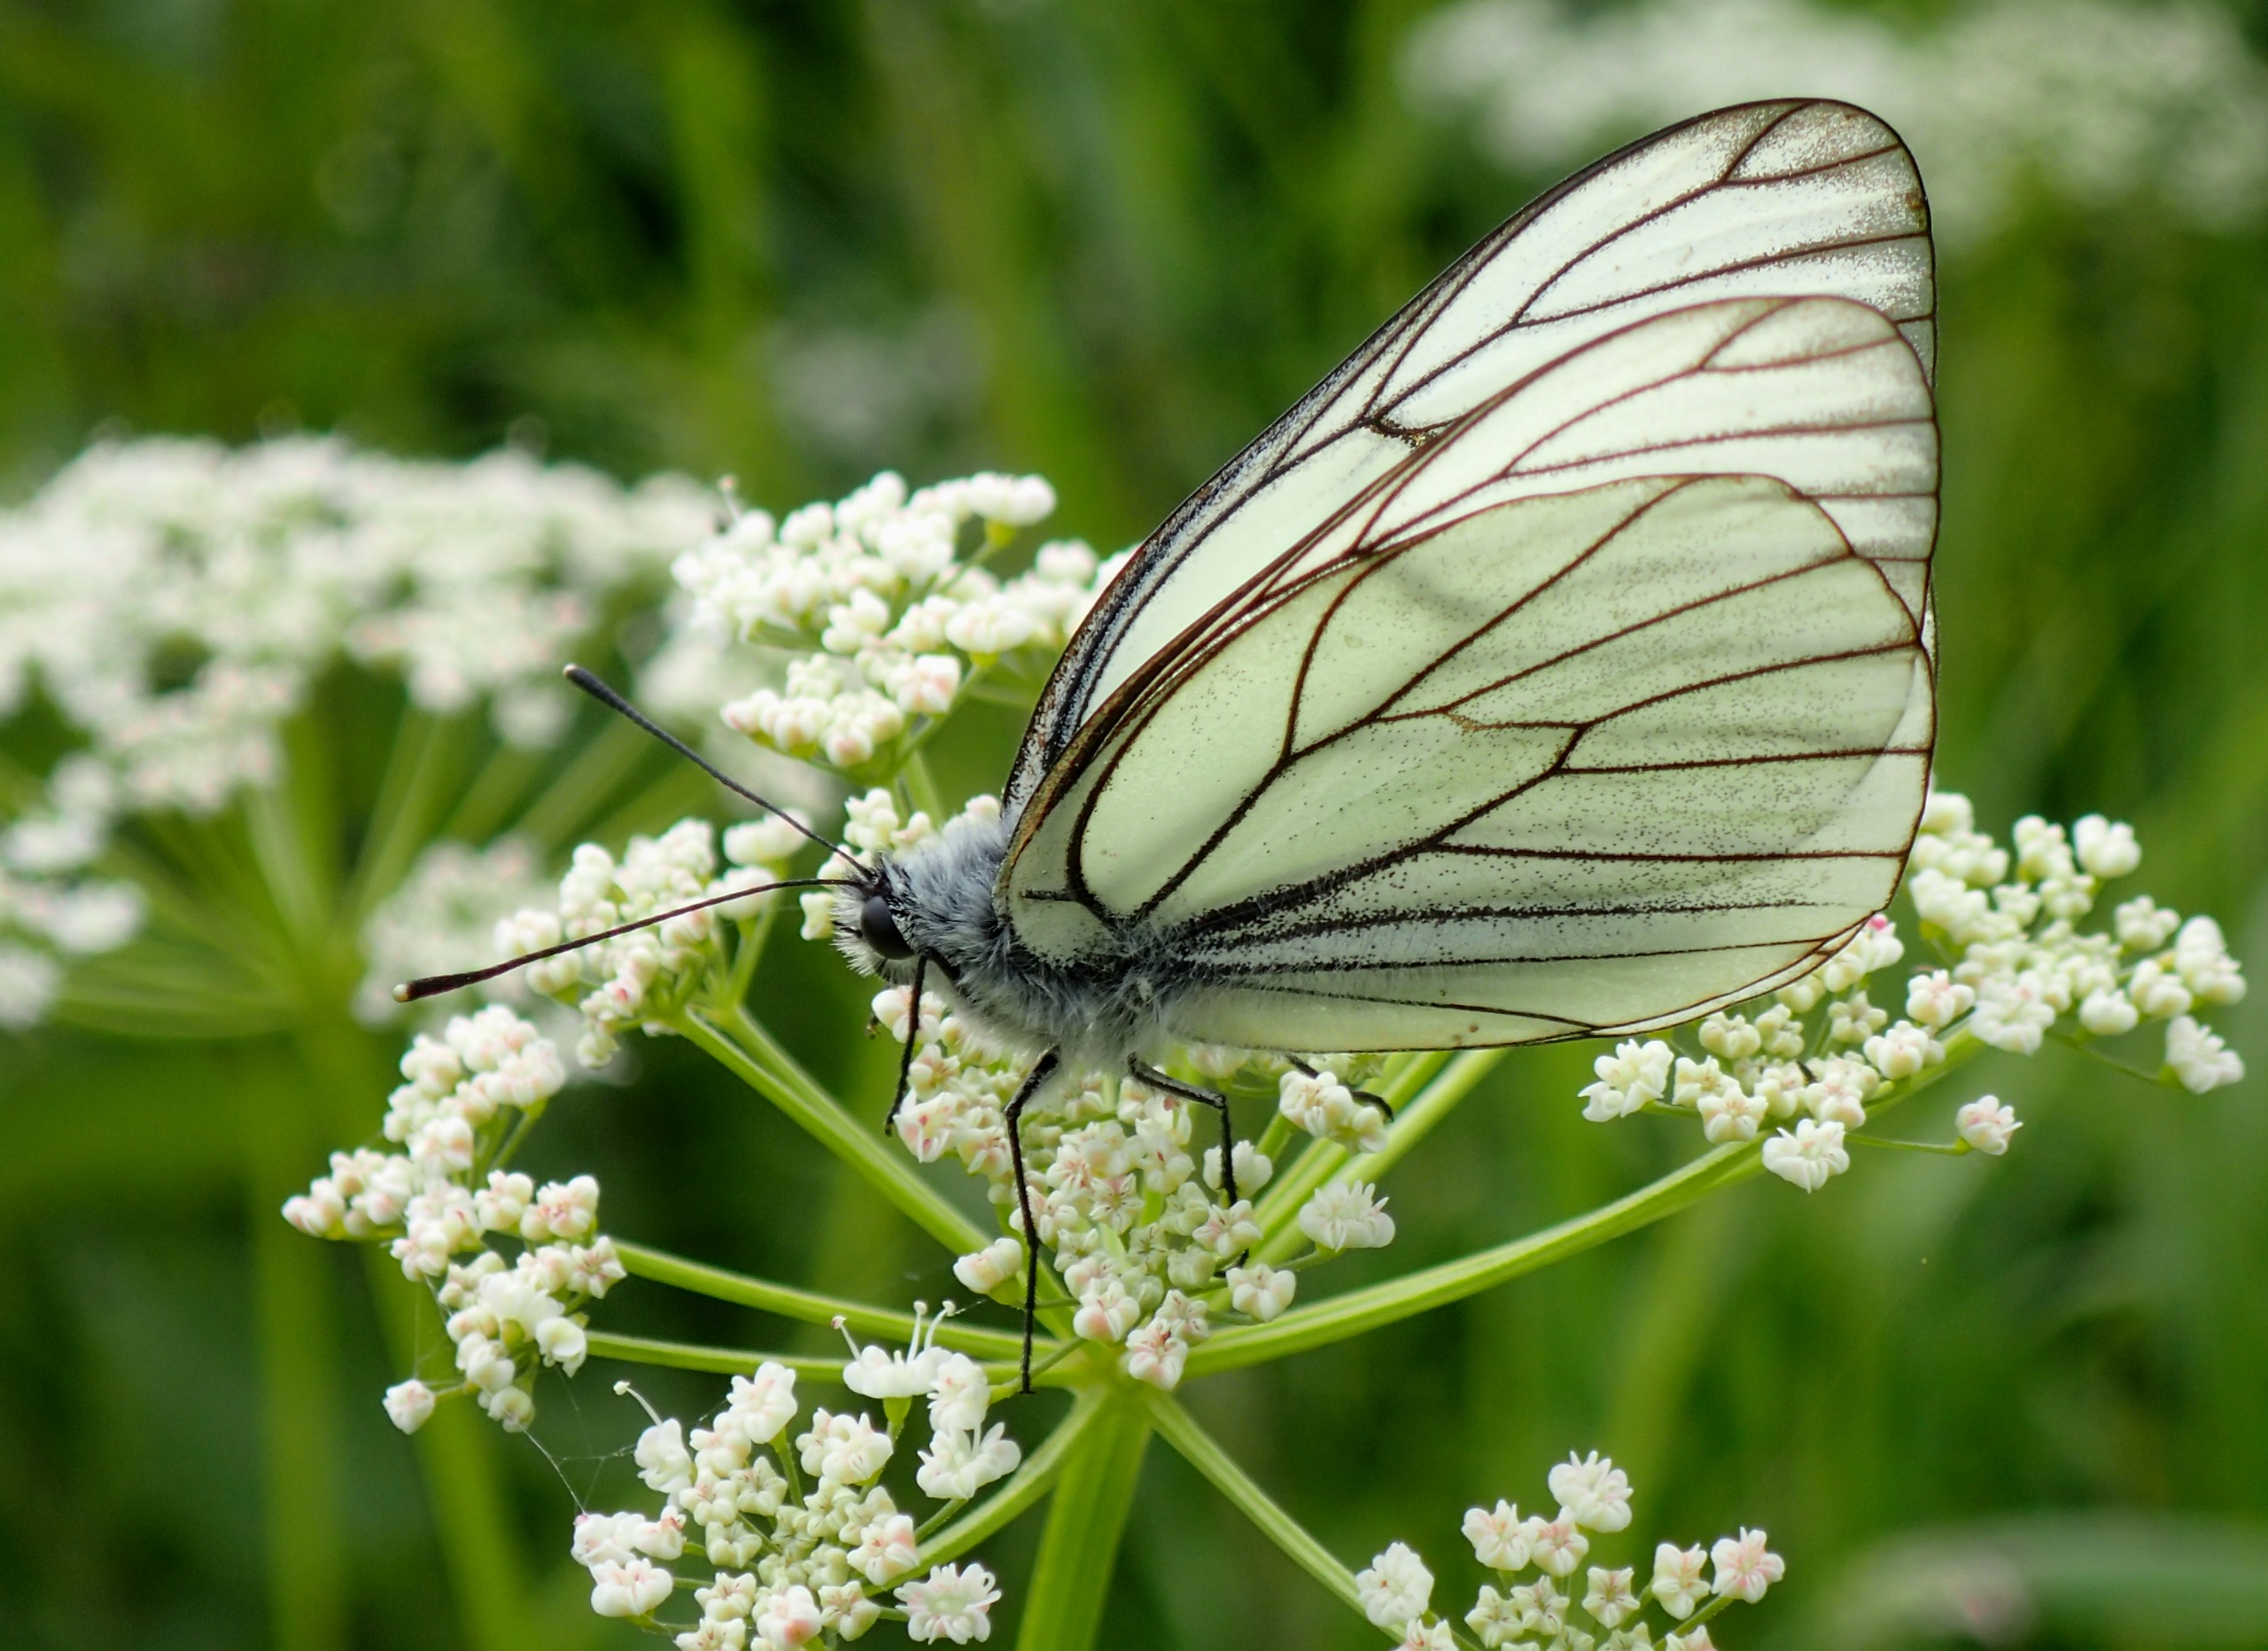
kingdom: Animalia
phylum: Arthropoda
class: Insecta
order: Lepidoptera
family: Pieridae
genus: Aporia
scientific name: Aporia crataegi
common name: Sortåret hvidvinge
